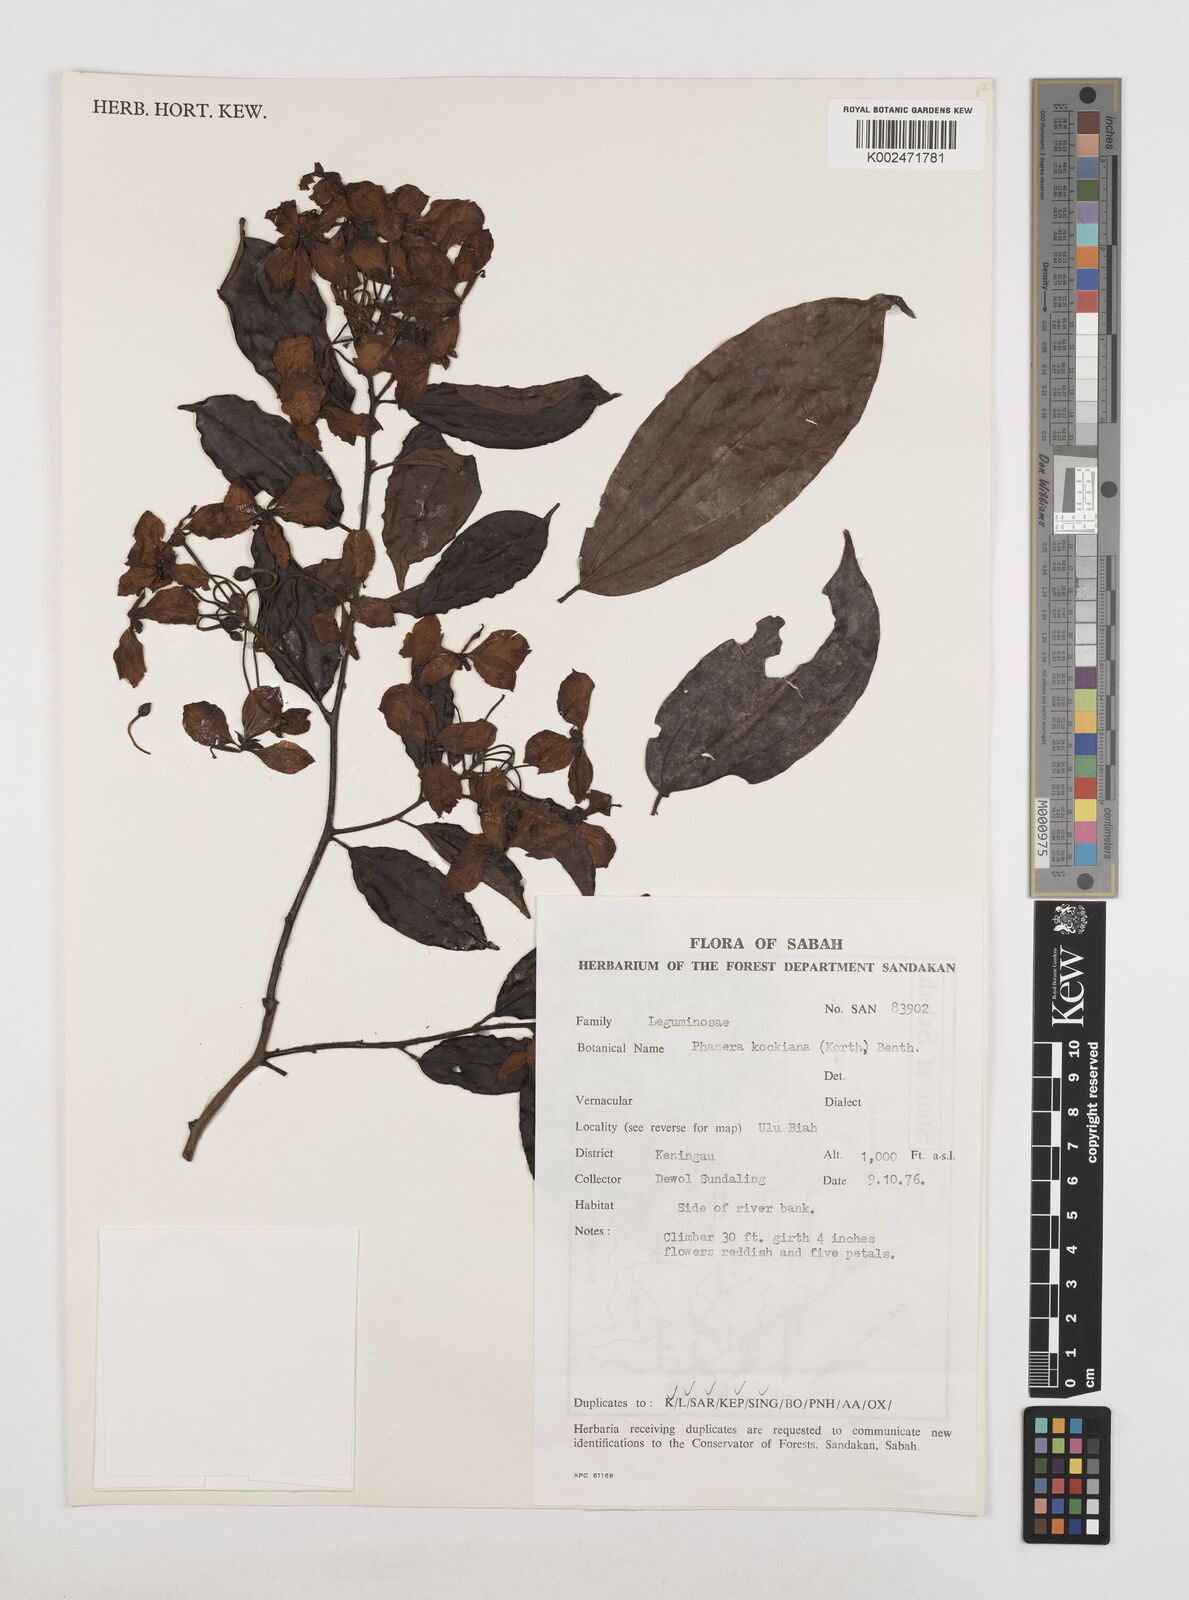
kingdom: Plantae
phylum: Tracheophyta
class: Magnoliopsida
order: Fabales
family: Fabaceae
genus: Phanera
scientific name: Phanera kockiana
